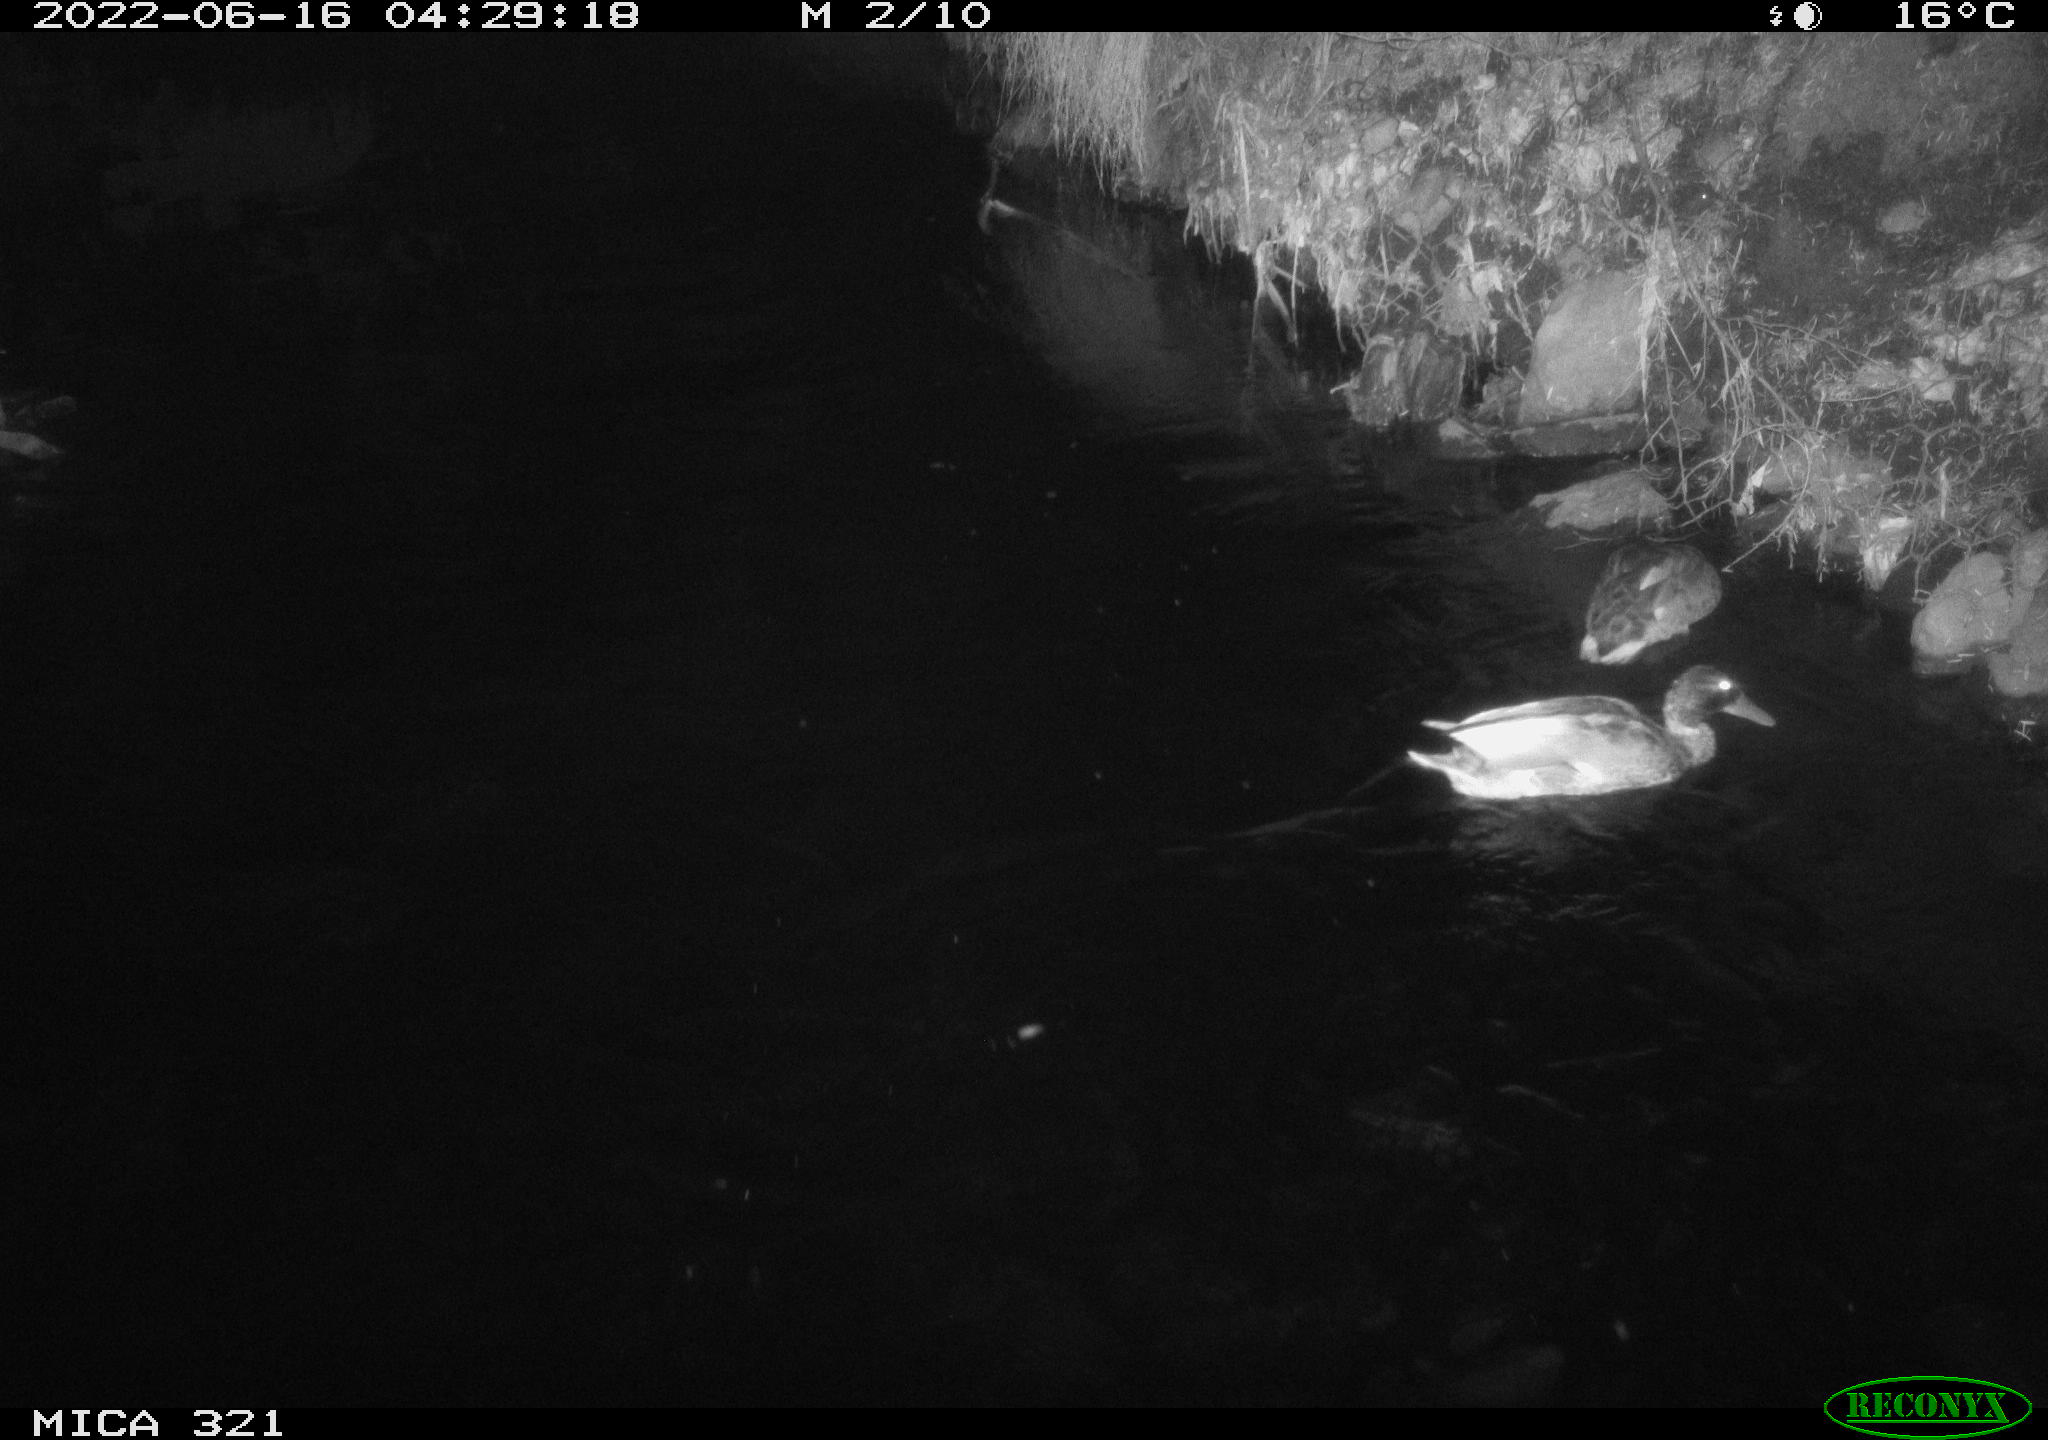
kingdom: Animalia
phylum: Chordata
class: Aves
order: Anseriformes
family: Anatidae
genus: Anas
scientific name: Anas platyrhynchos
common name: Mallard
